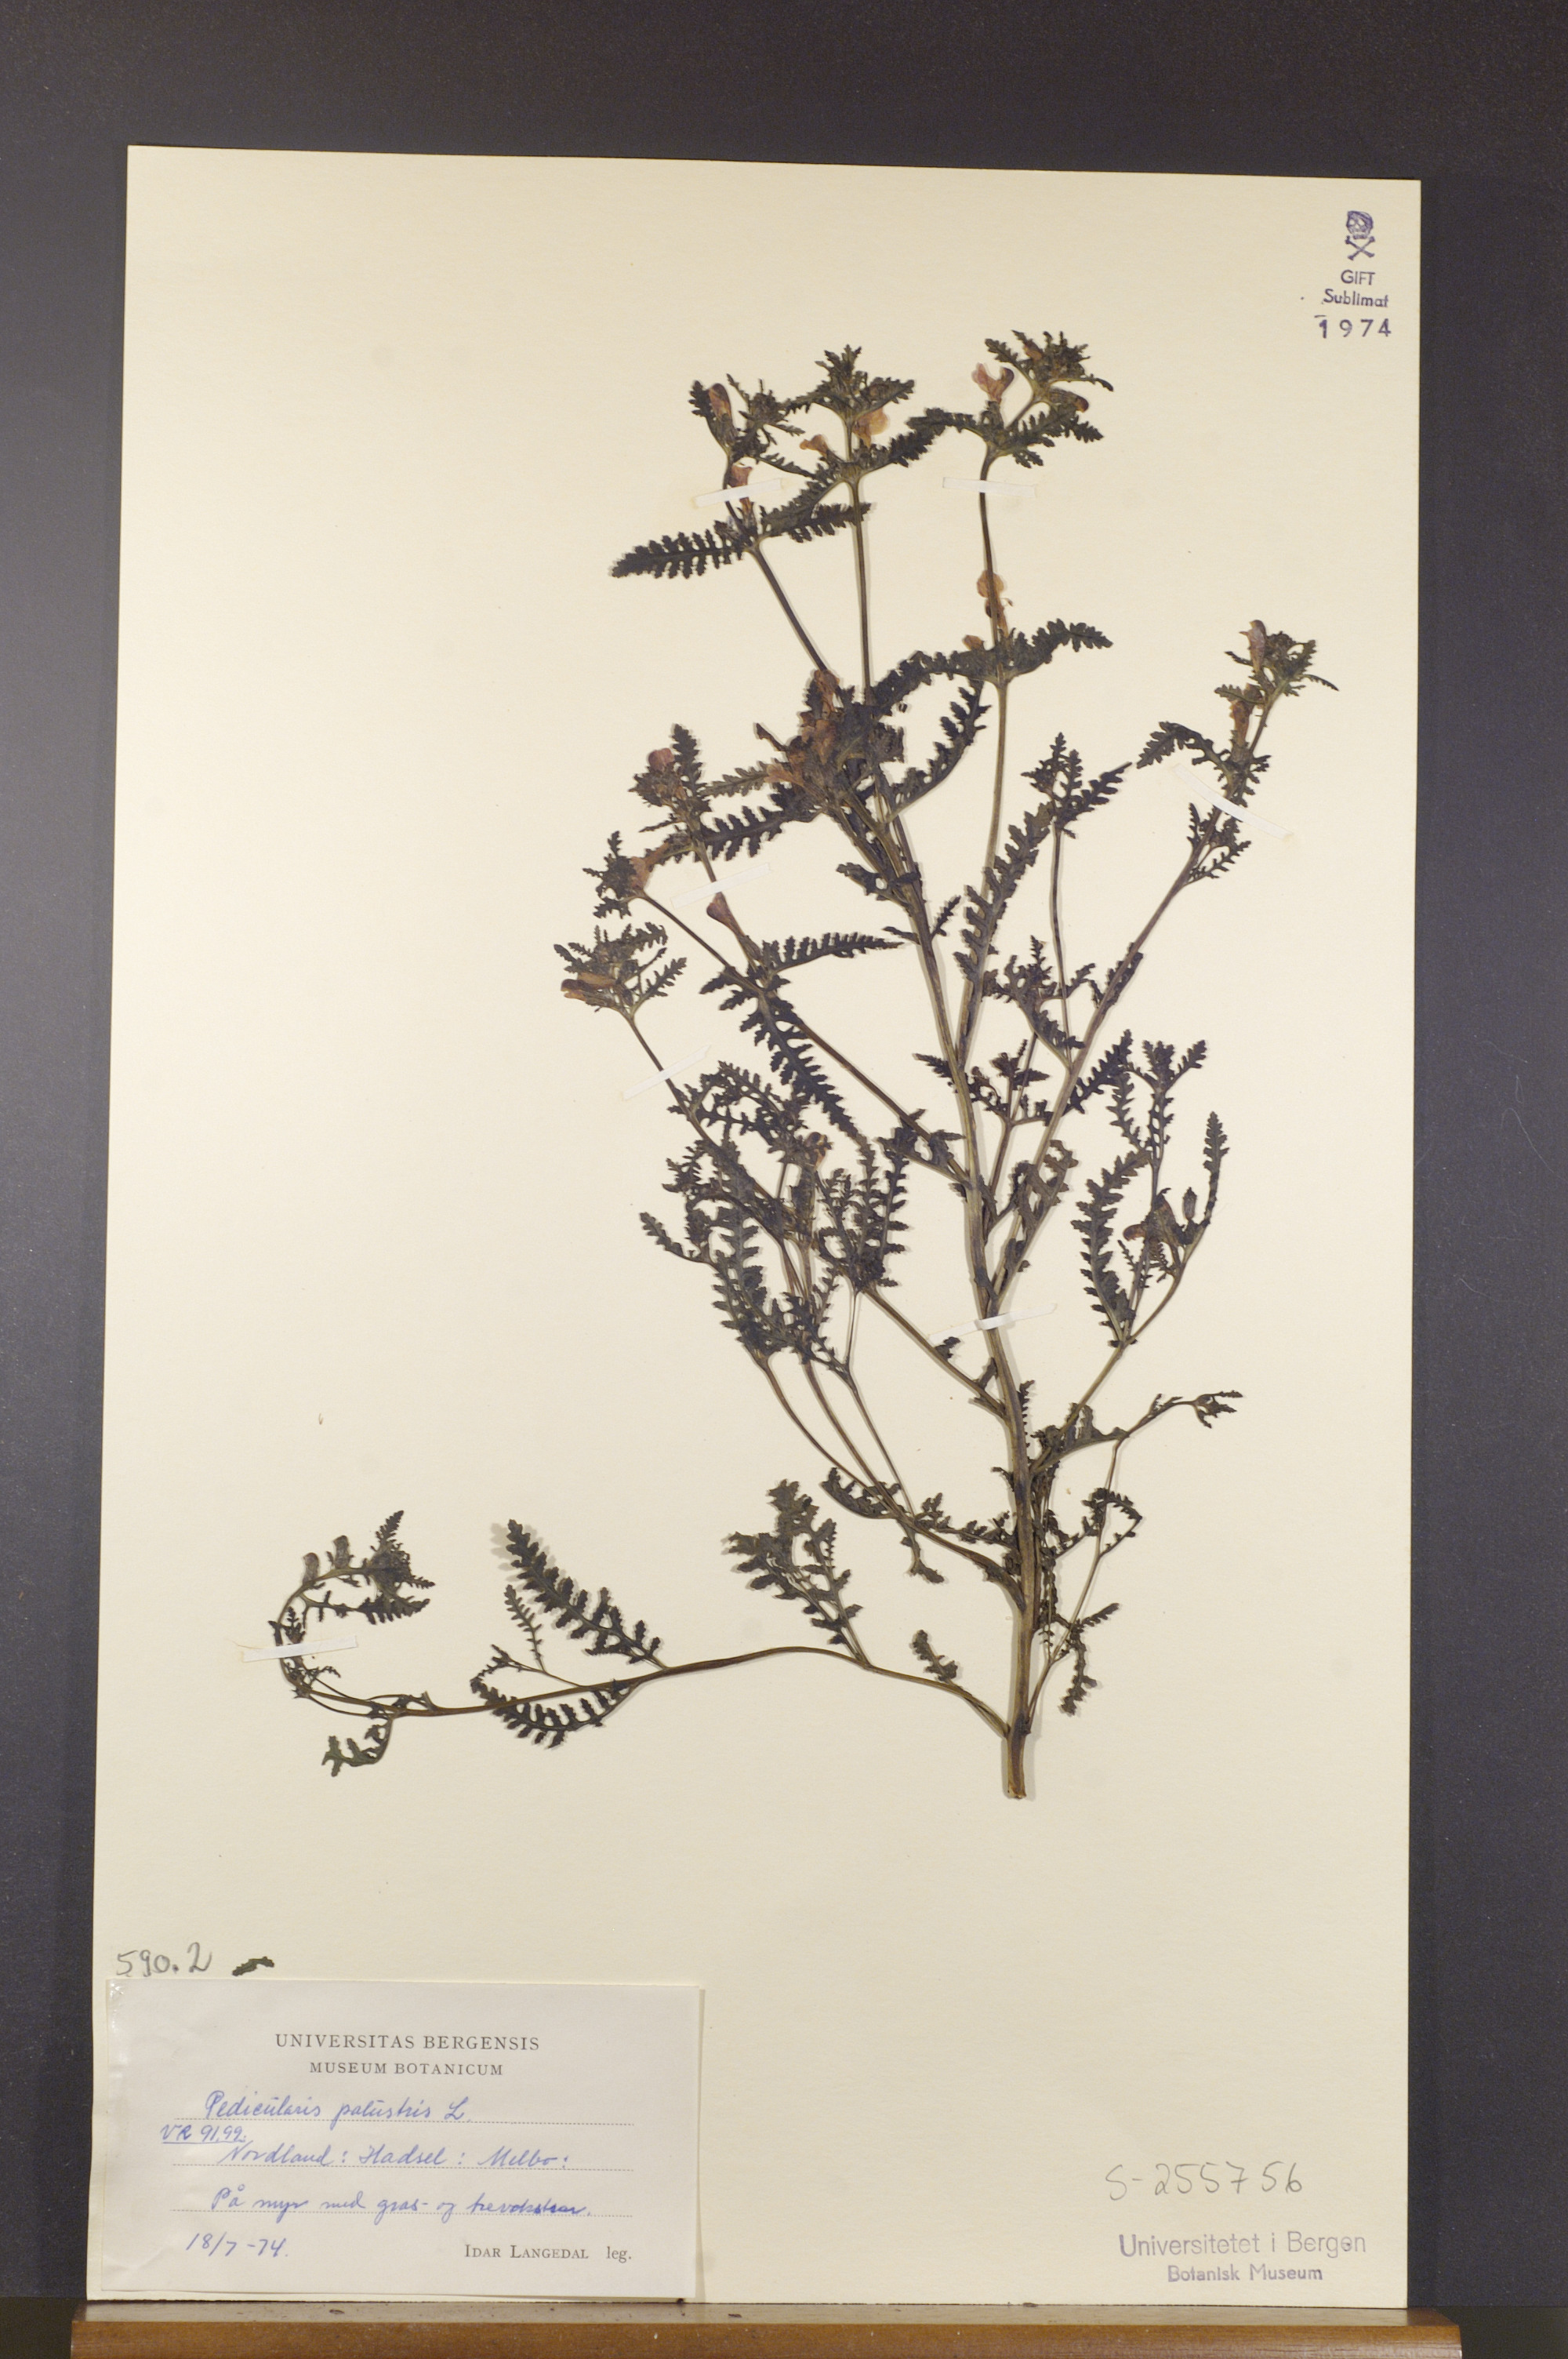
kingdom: Plantae
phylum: Tracheophyta
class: Magnoliopsida
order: Lamiales
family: Orobanchaceae
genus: Pedicularis
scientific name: Pedicularis palustris
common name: Marsh lousewort
